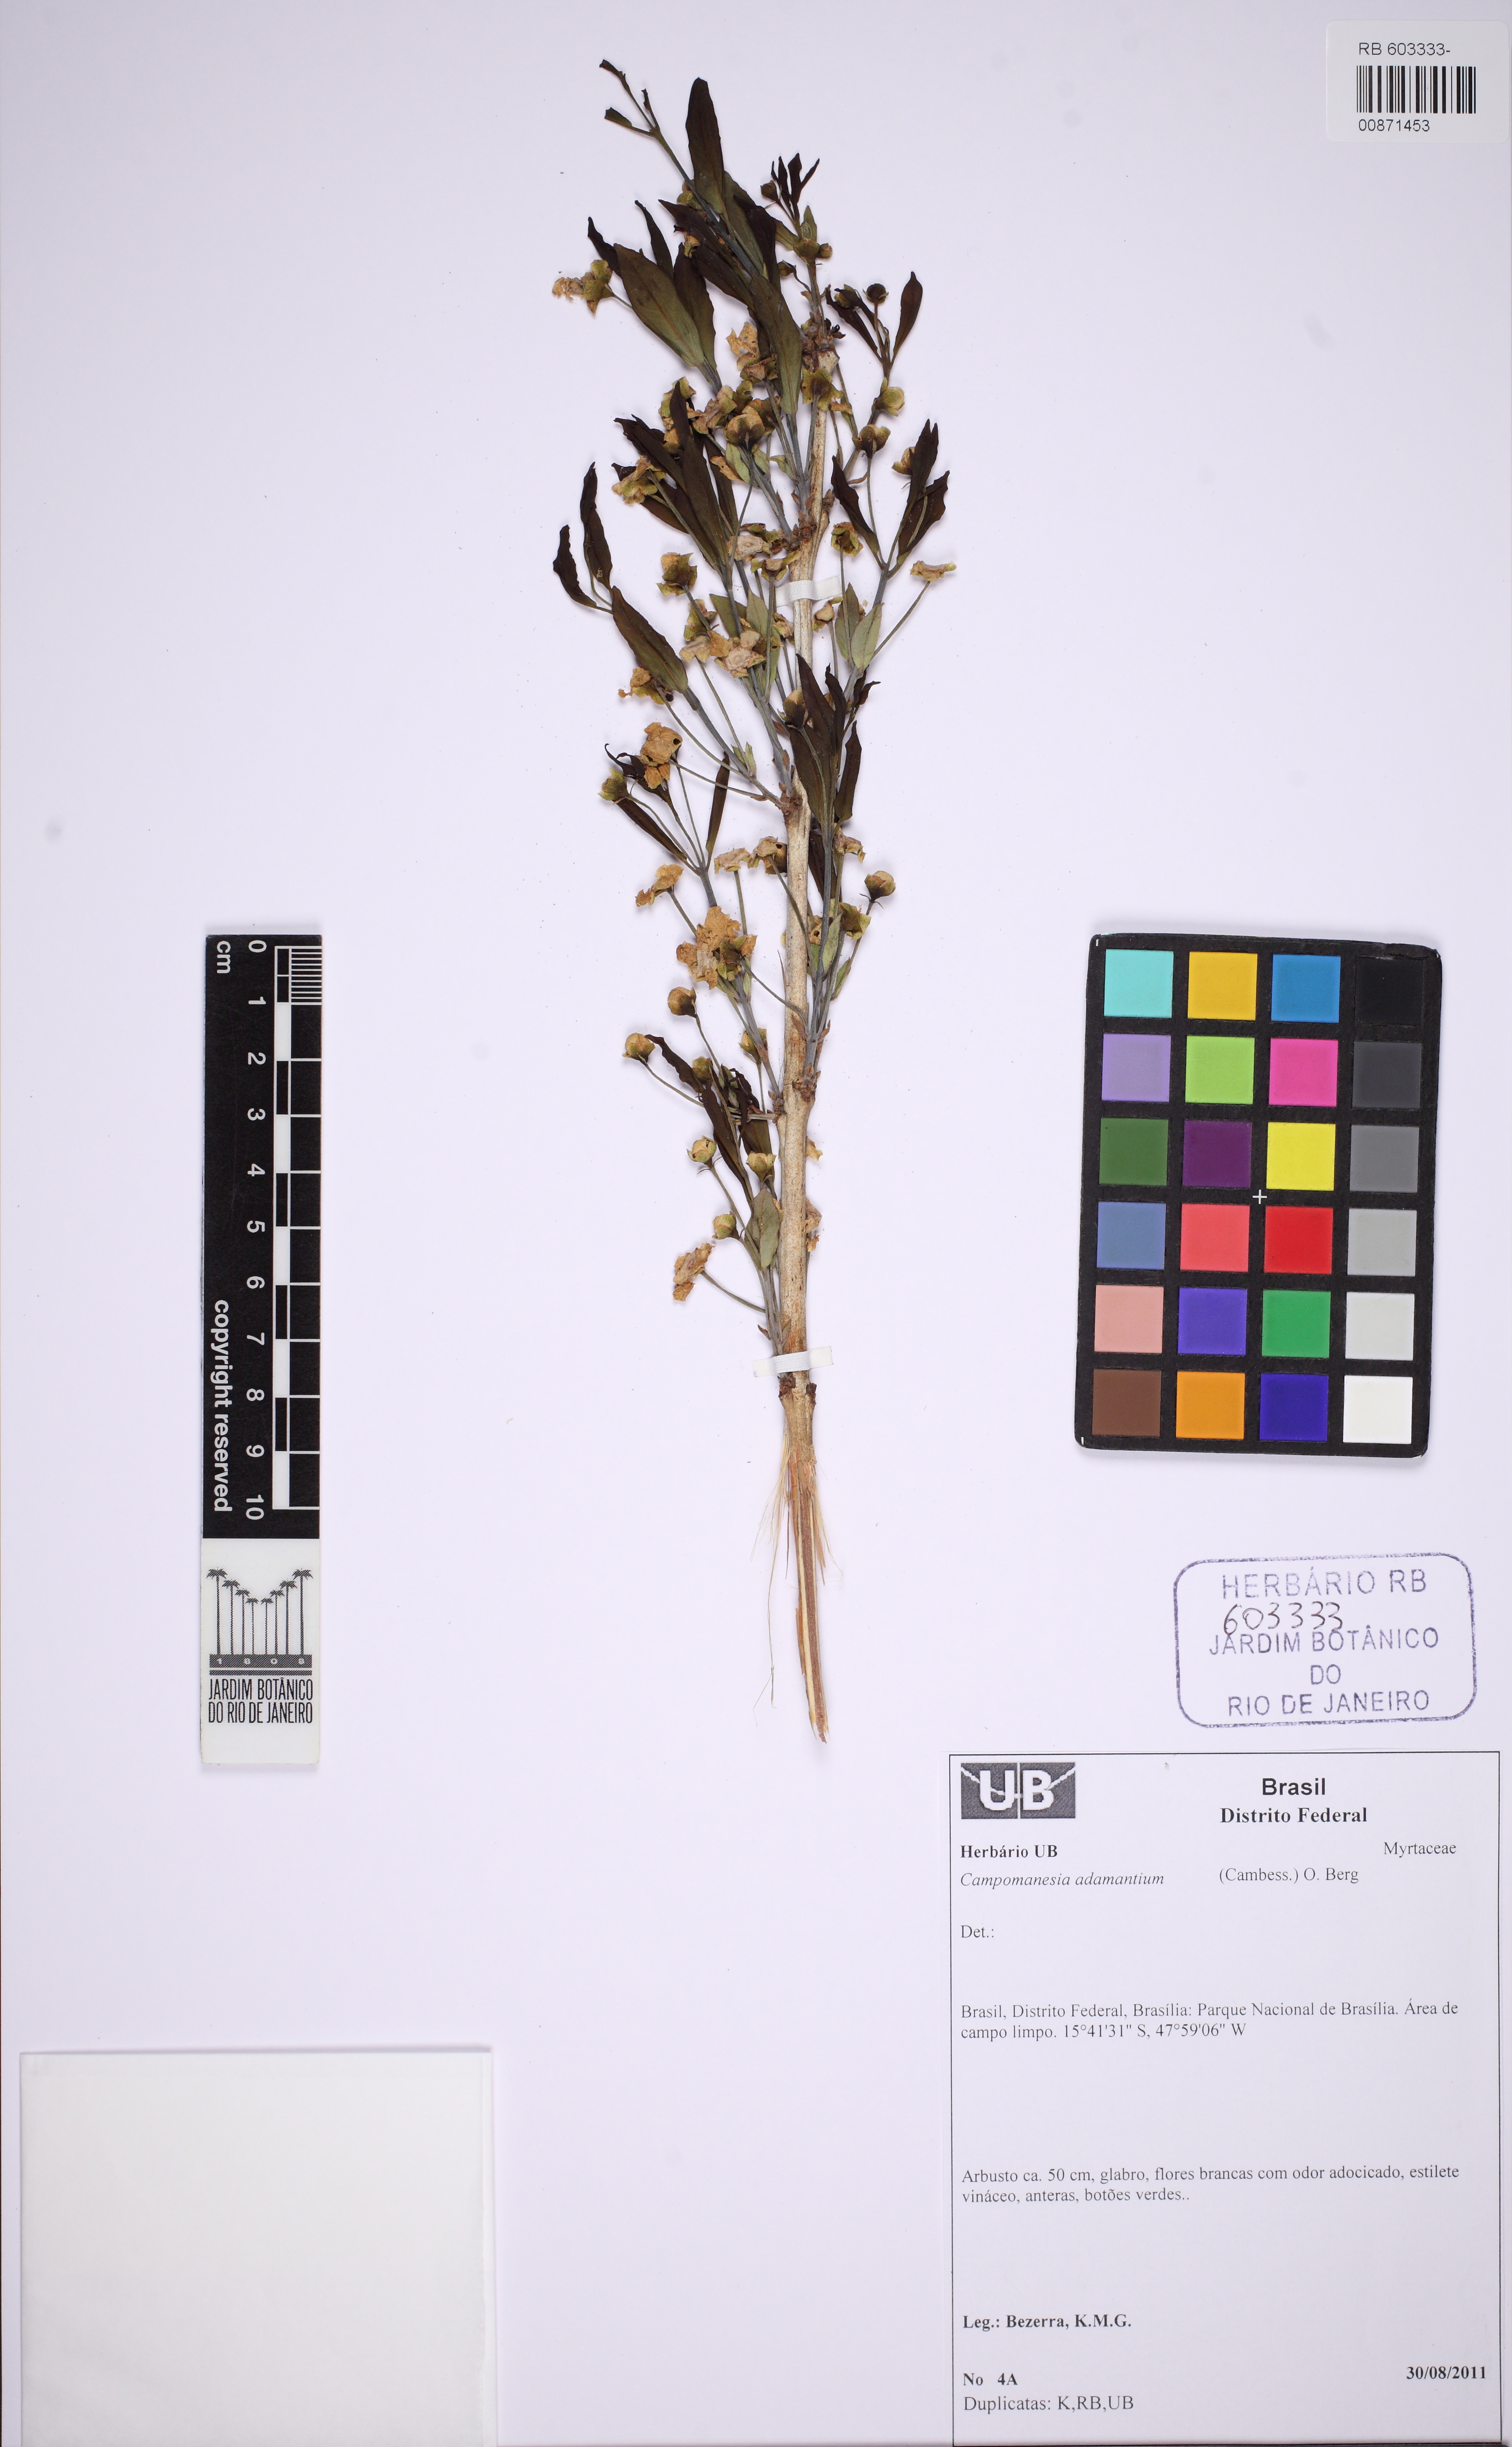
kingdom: Plantae
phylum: Tracheophyta
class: Magnoliopsida
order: Myrtales
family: Myrtaceae
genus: Campomanesia
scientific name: Campomanesia adamantium
